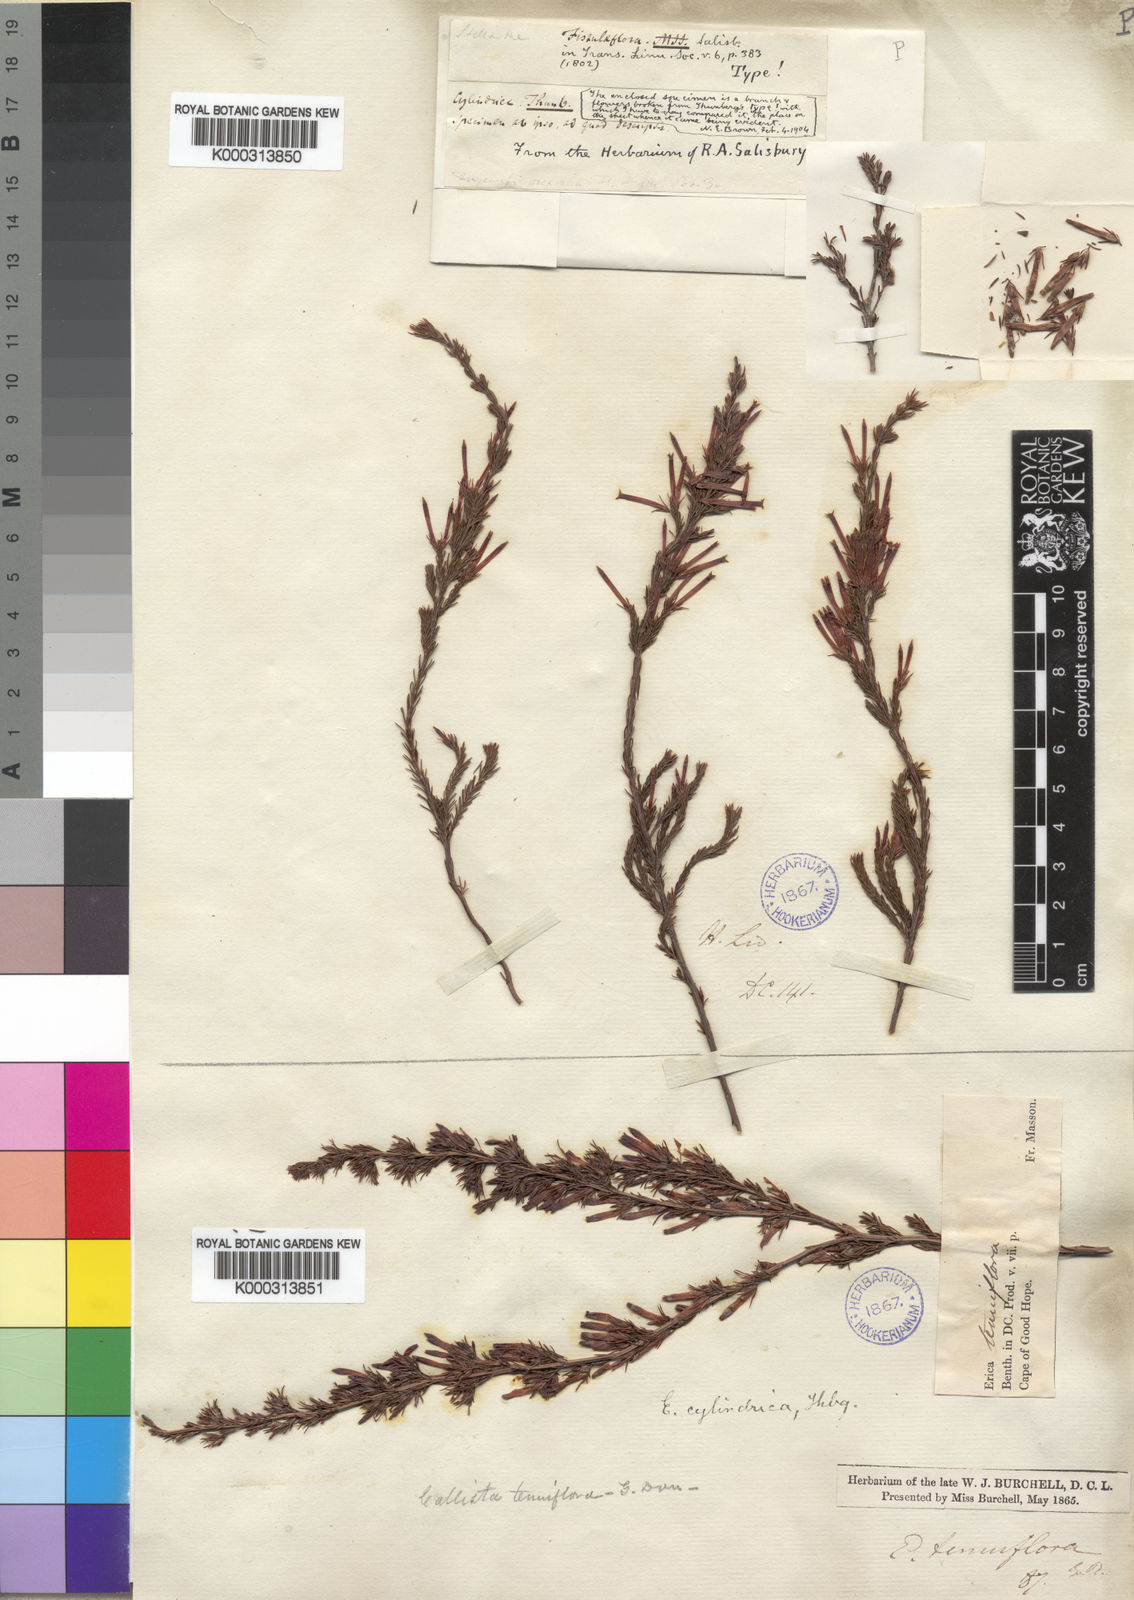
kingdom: Plantae
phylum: Tracheophyta
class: Magnoliopsida
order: Ericales
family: Ericaceae
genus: Erica
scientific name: Erica cylindrica
